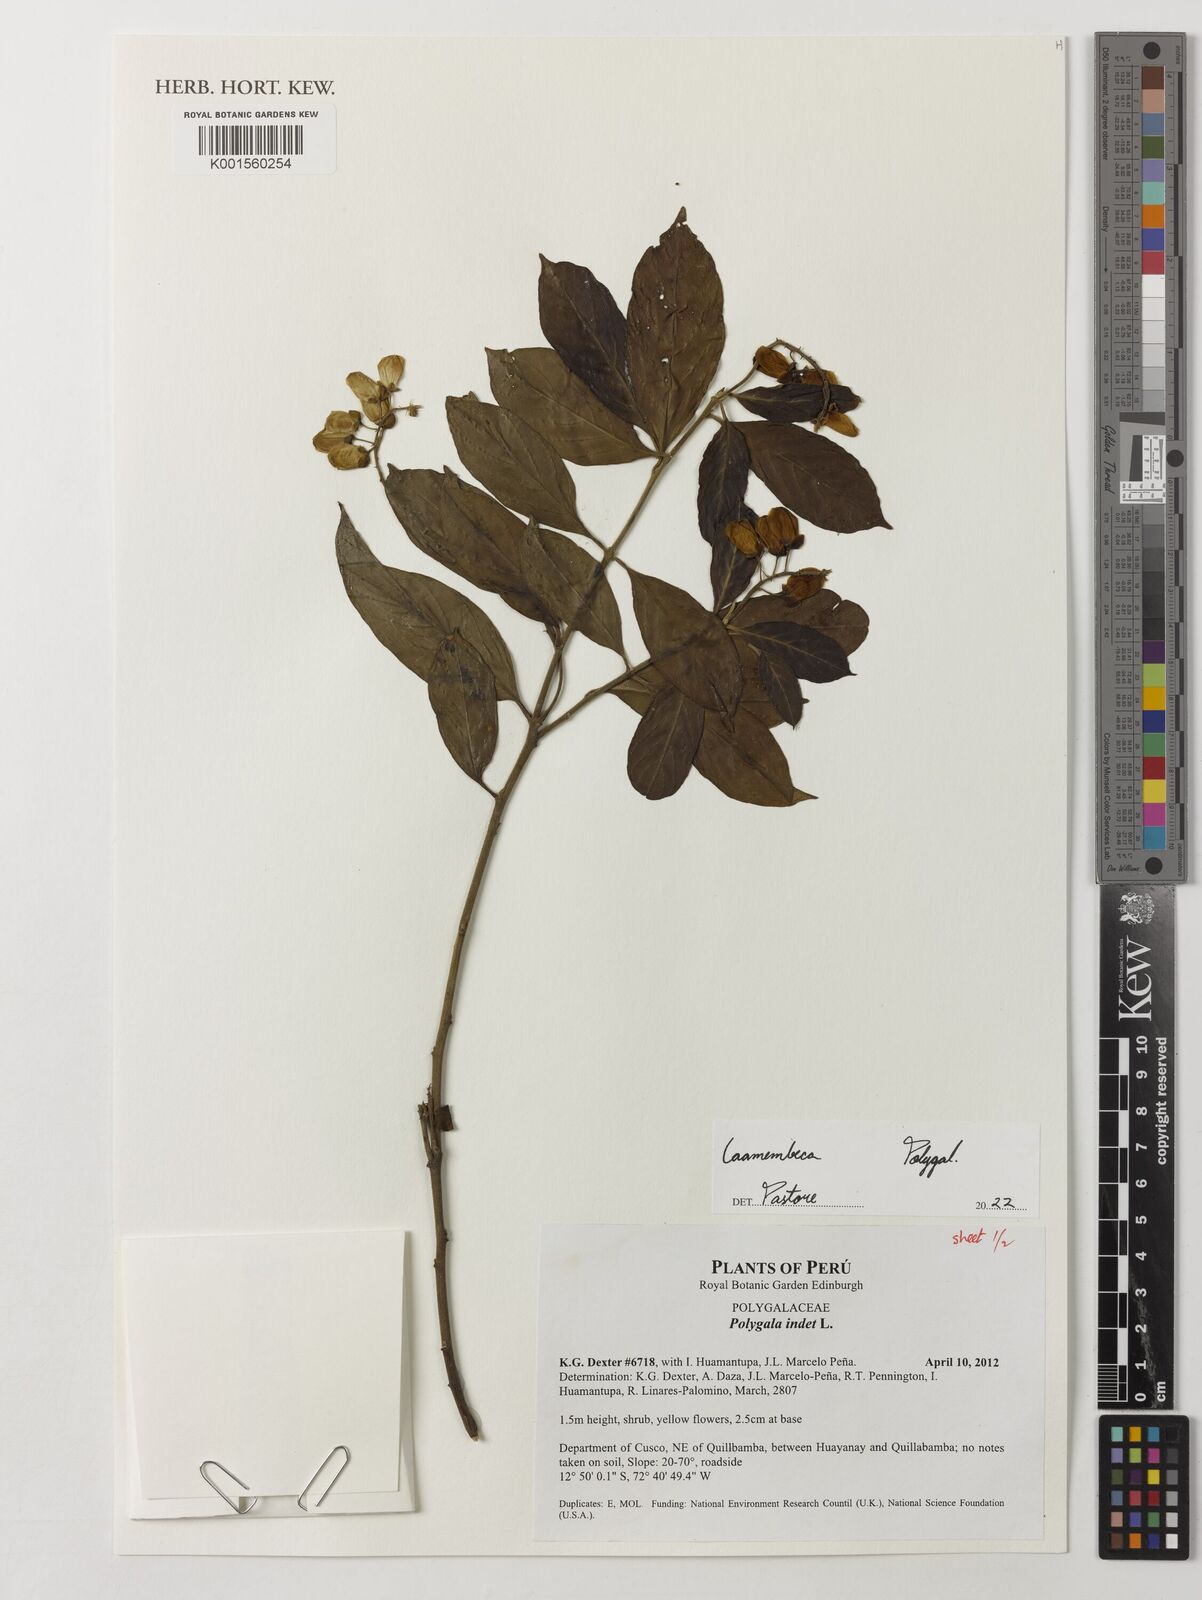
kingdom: Plantae
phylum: Tracheophyta
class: Magnoliopsida
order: Fabales
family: Polygalaceae
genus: Caamembeca
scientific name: Caamembeca
